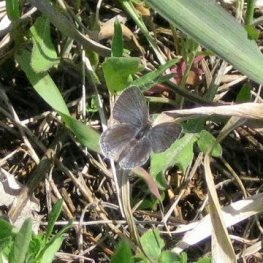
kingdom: Animalia
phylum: Arthropoda
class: Insecta
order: Lepidoptera
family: Lycaenidae
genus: Elkalyce
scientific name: Elkalyce comyntas
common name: Eastern Tailed-Blue
